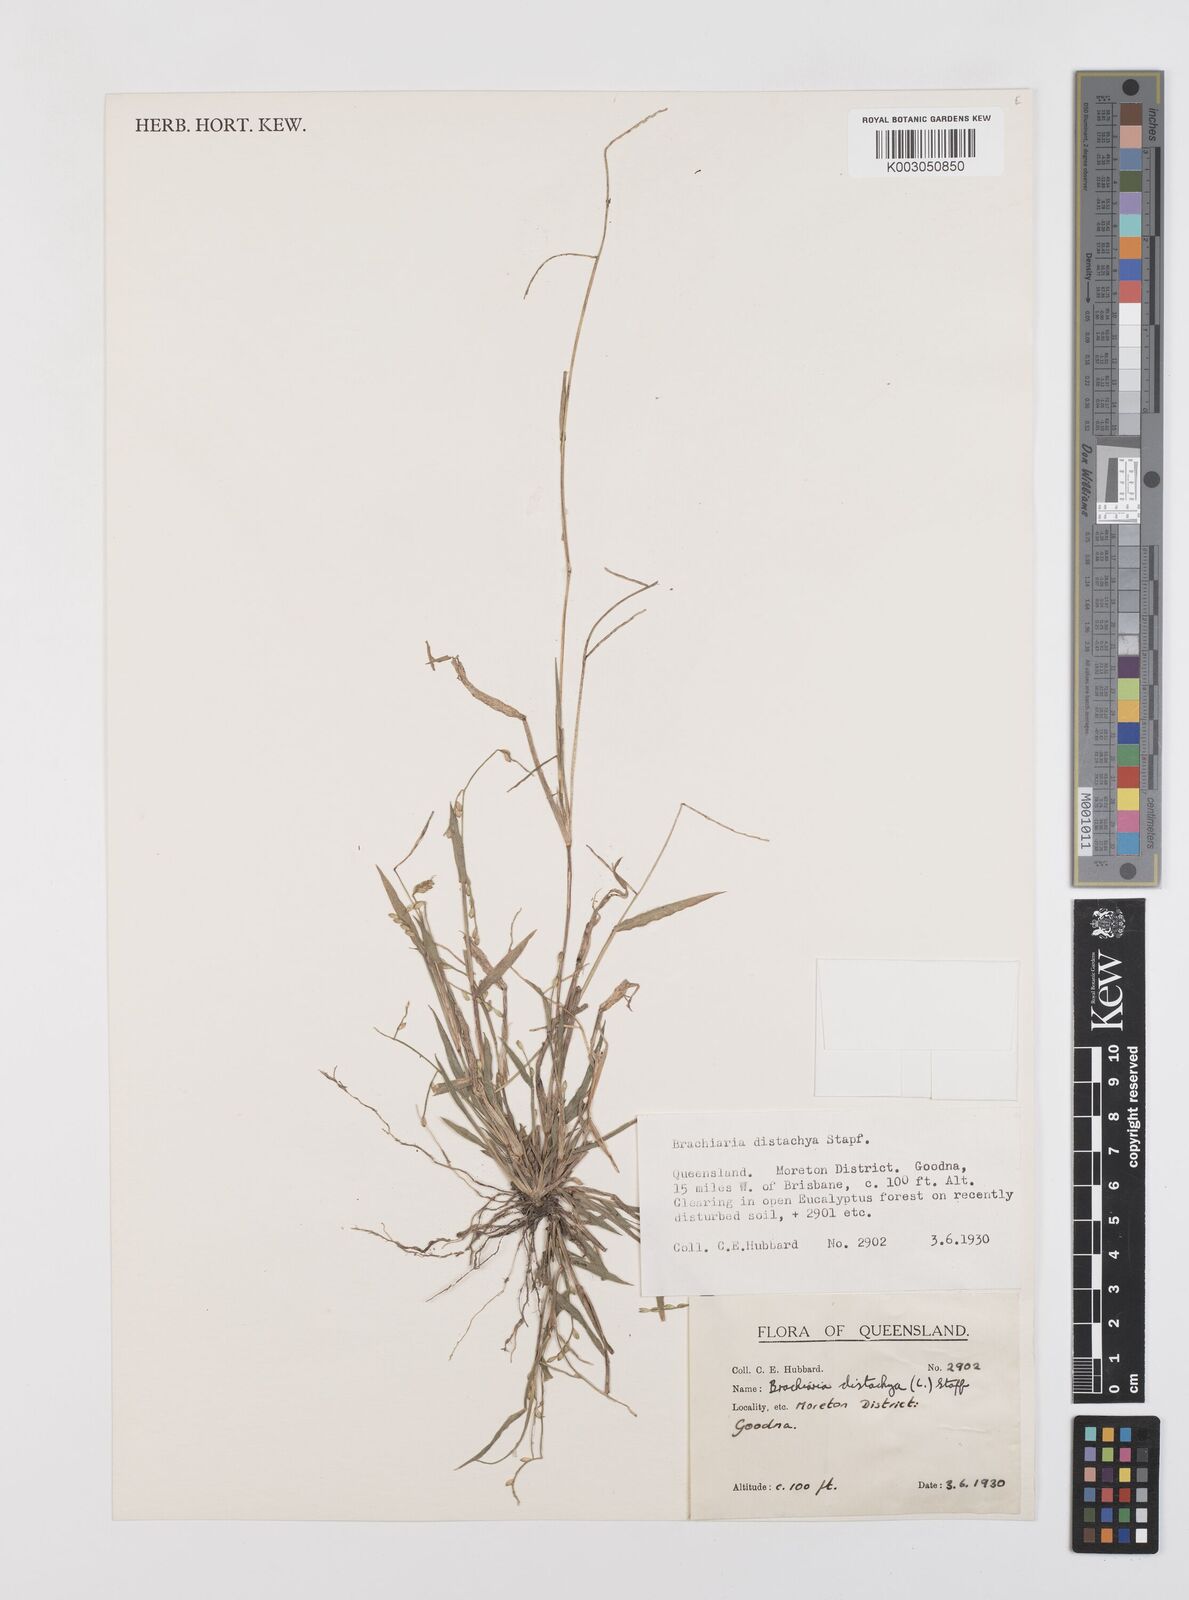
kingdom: Plantae
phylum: Tracheophyta
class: Liliopsida
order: Poales
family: Poaceae
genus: Urochloa
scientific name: Urochloa distachyos
